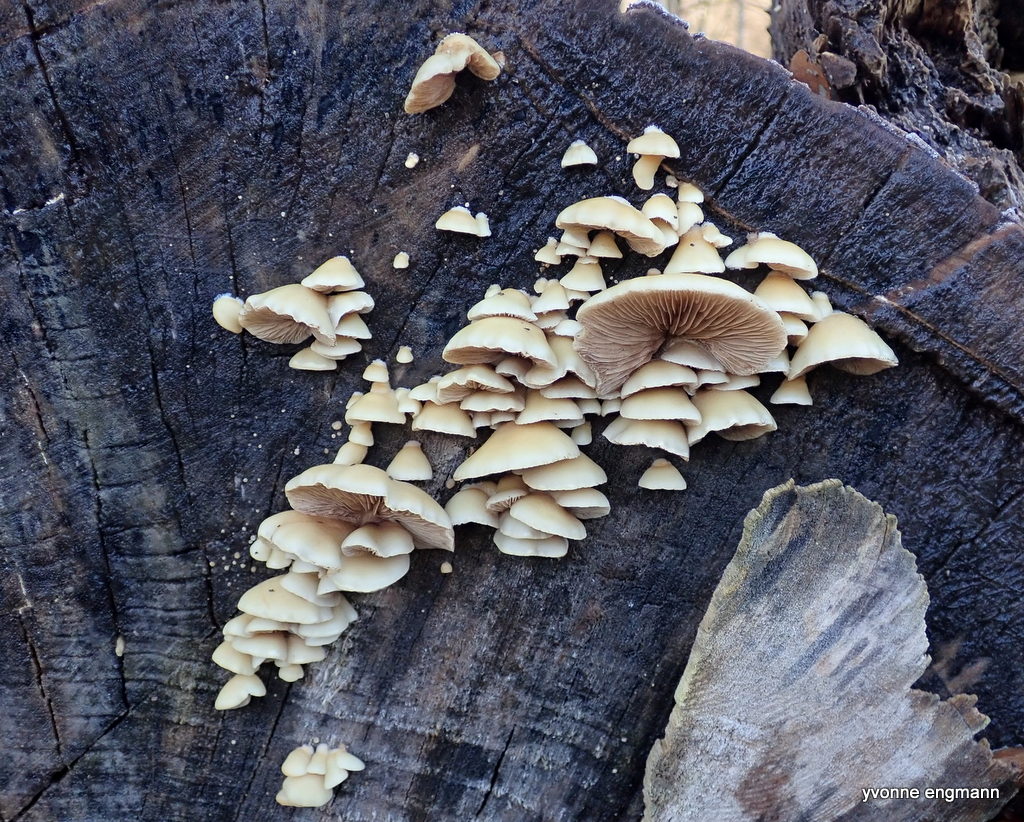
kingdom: Fungi
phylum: Basidiomycota
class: Agaricomycetes
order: Agaricales
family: Crepidotaceae
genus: Crepidotus
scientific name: Crepidotus mollis
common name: blød muslingesvamp
